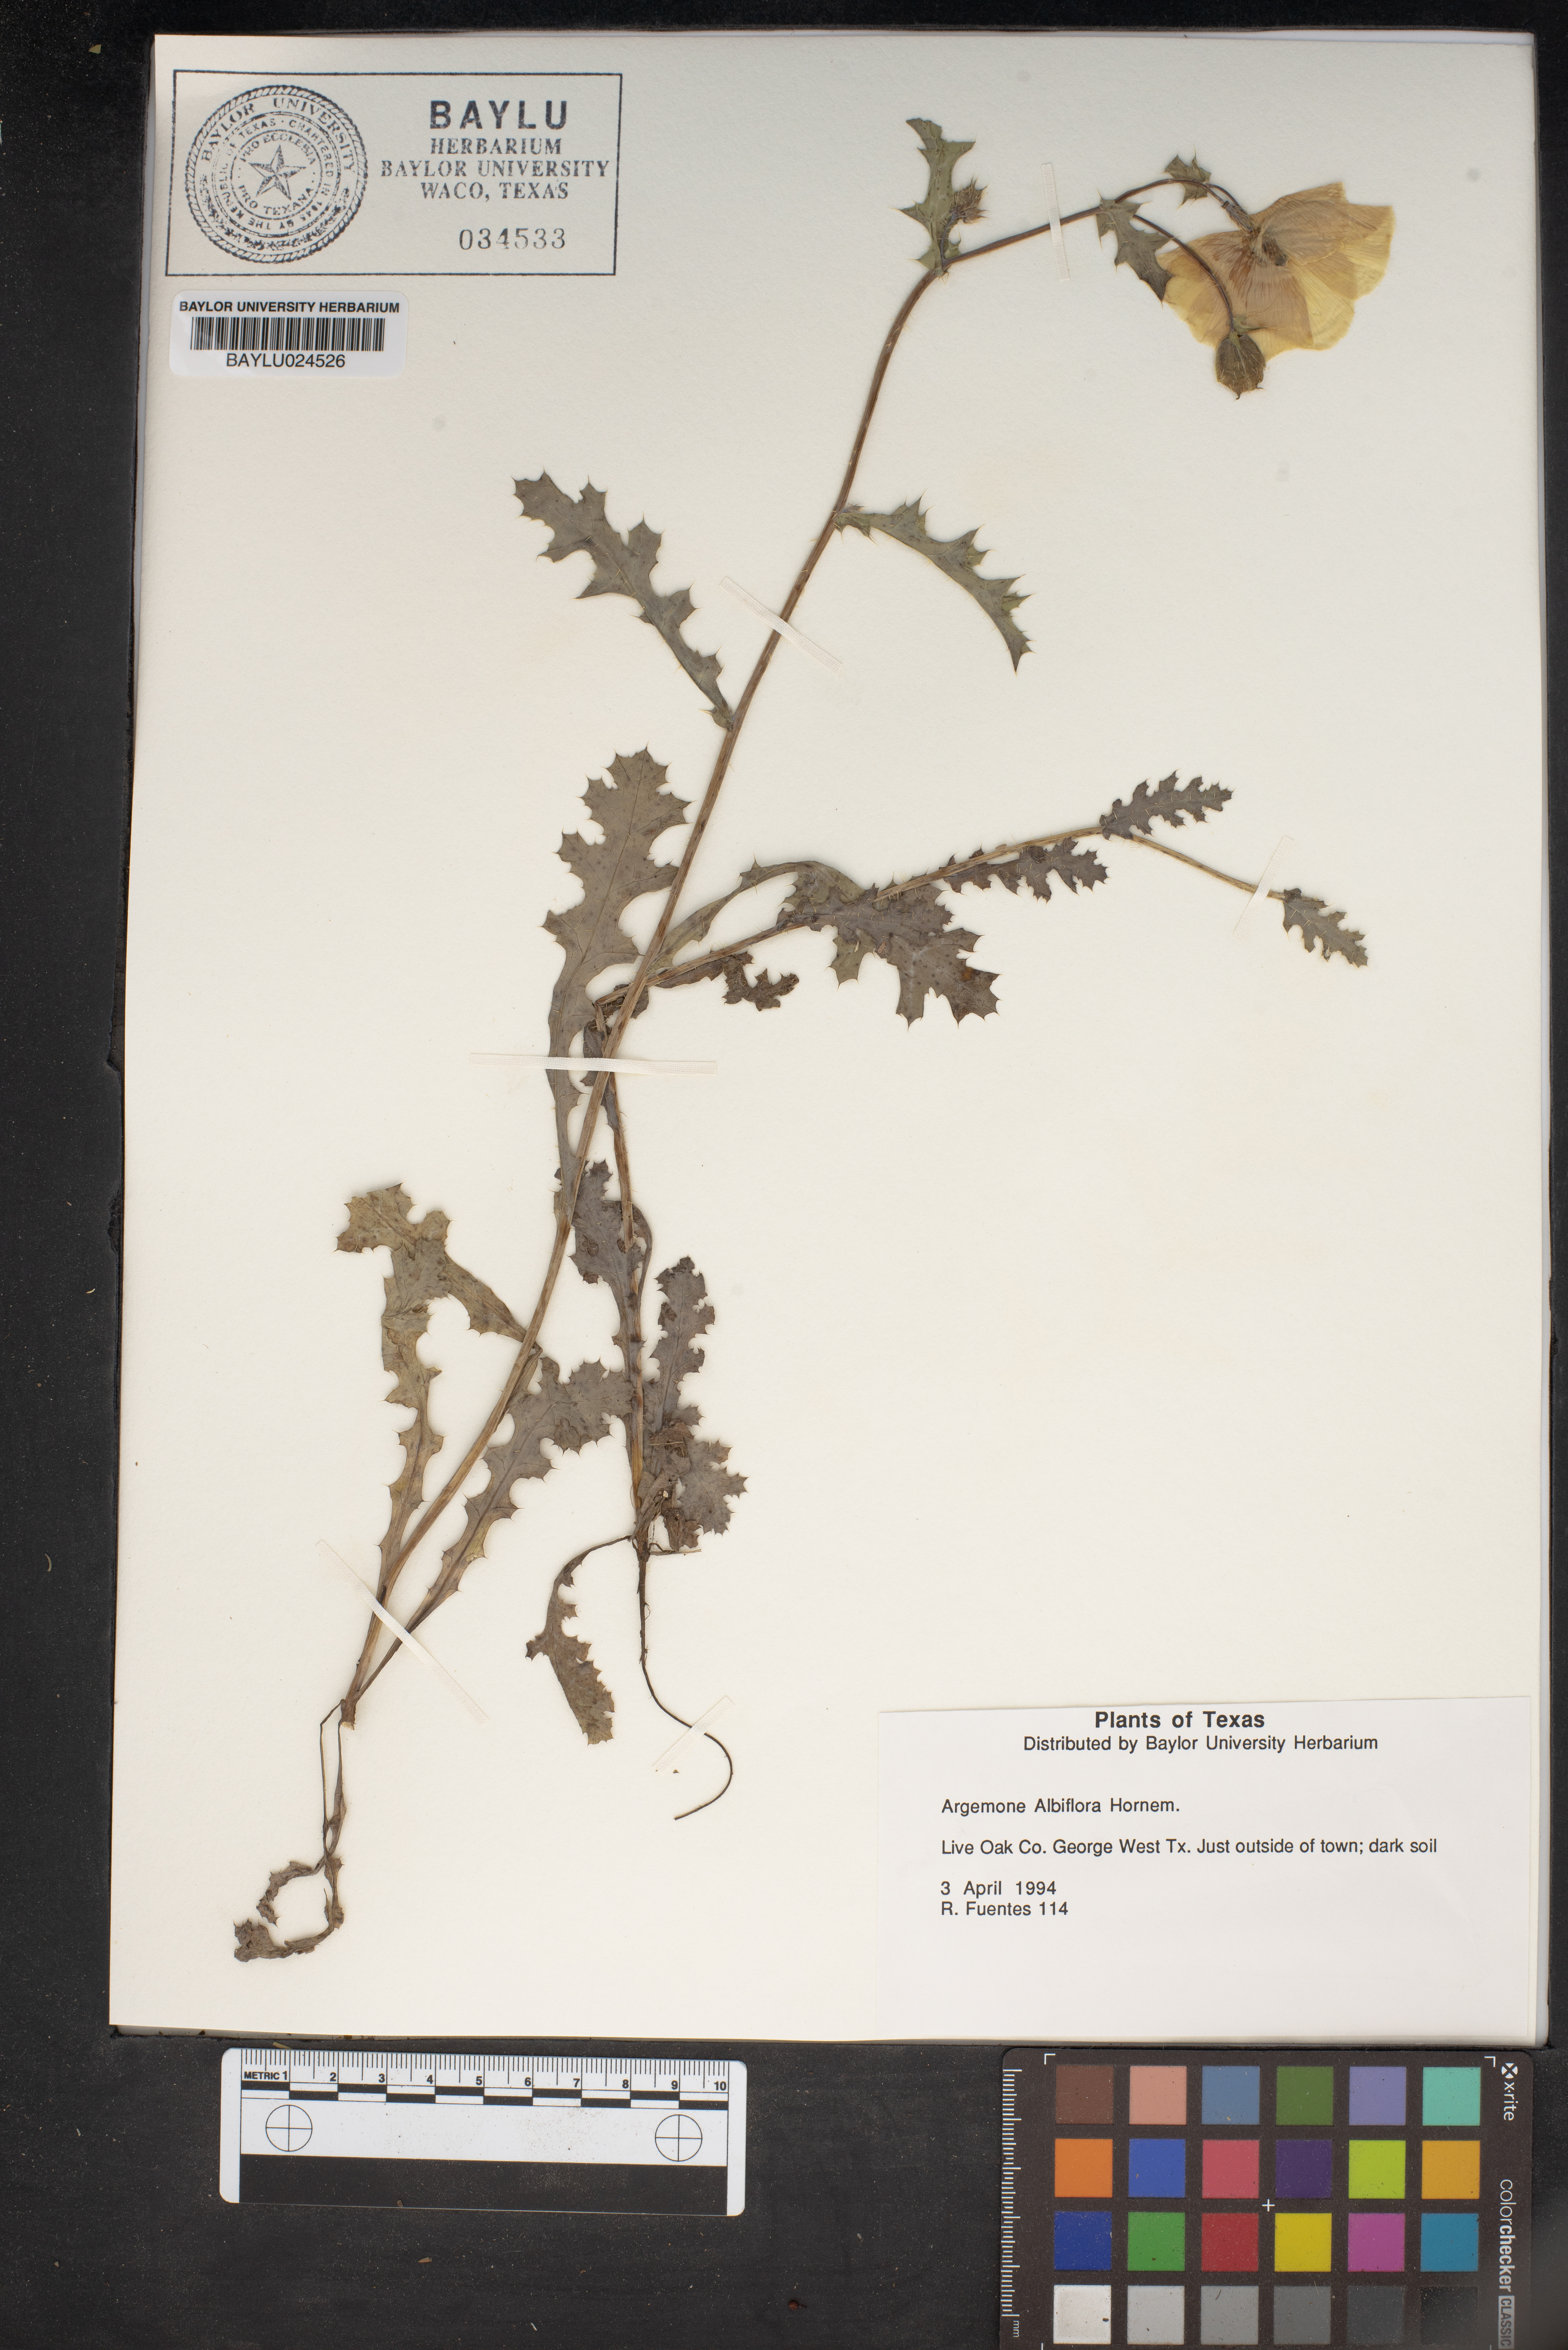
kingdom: Plantae
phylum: Tracheophyta
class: Magnoliopsida
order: Ranunculales
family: Papaveraceae
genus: Argemone
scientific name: Argemone albiflora
